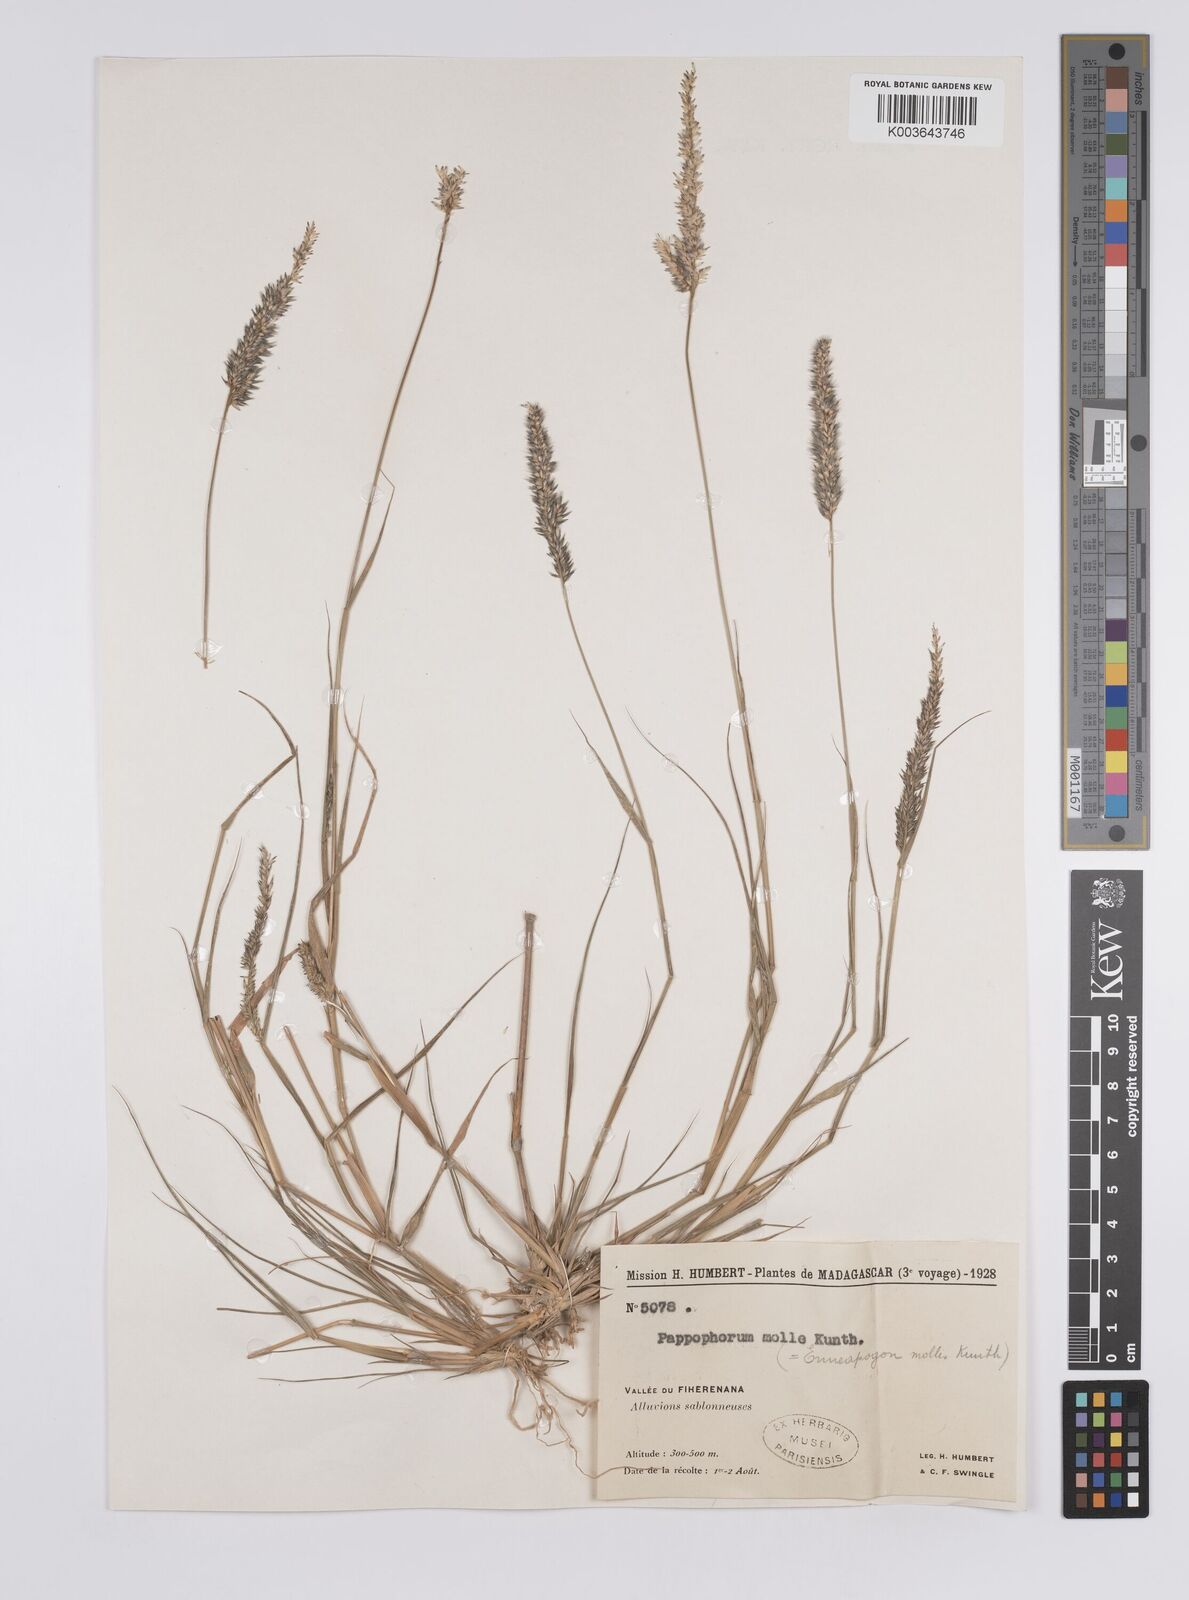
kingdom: Plantae
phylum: Tracheophyta
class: Liliopsida
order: Poales
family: Poaceae
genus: Enneapogon
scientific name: Enneapogon cenchroides
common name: Soft feather pappusgrass
